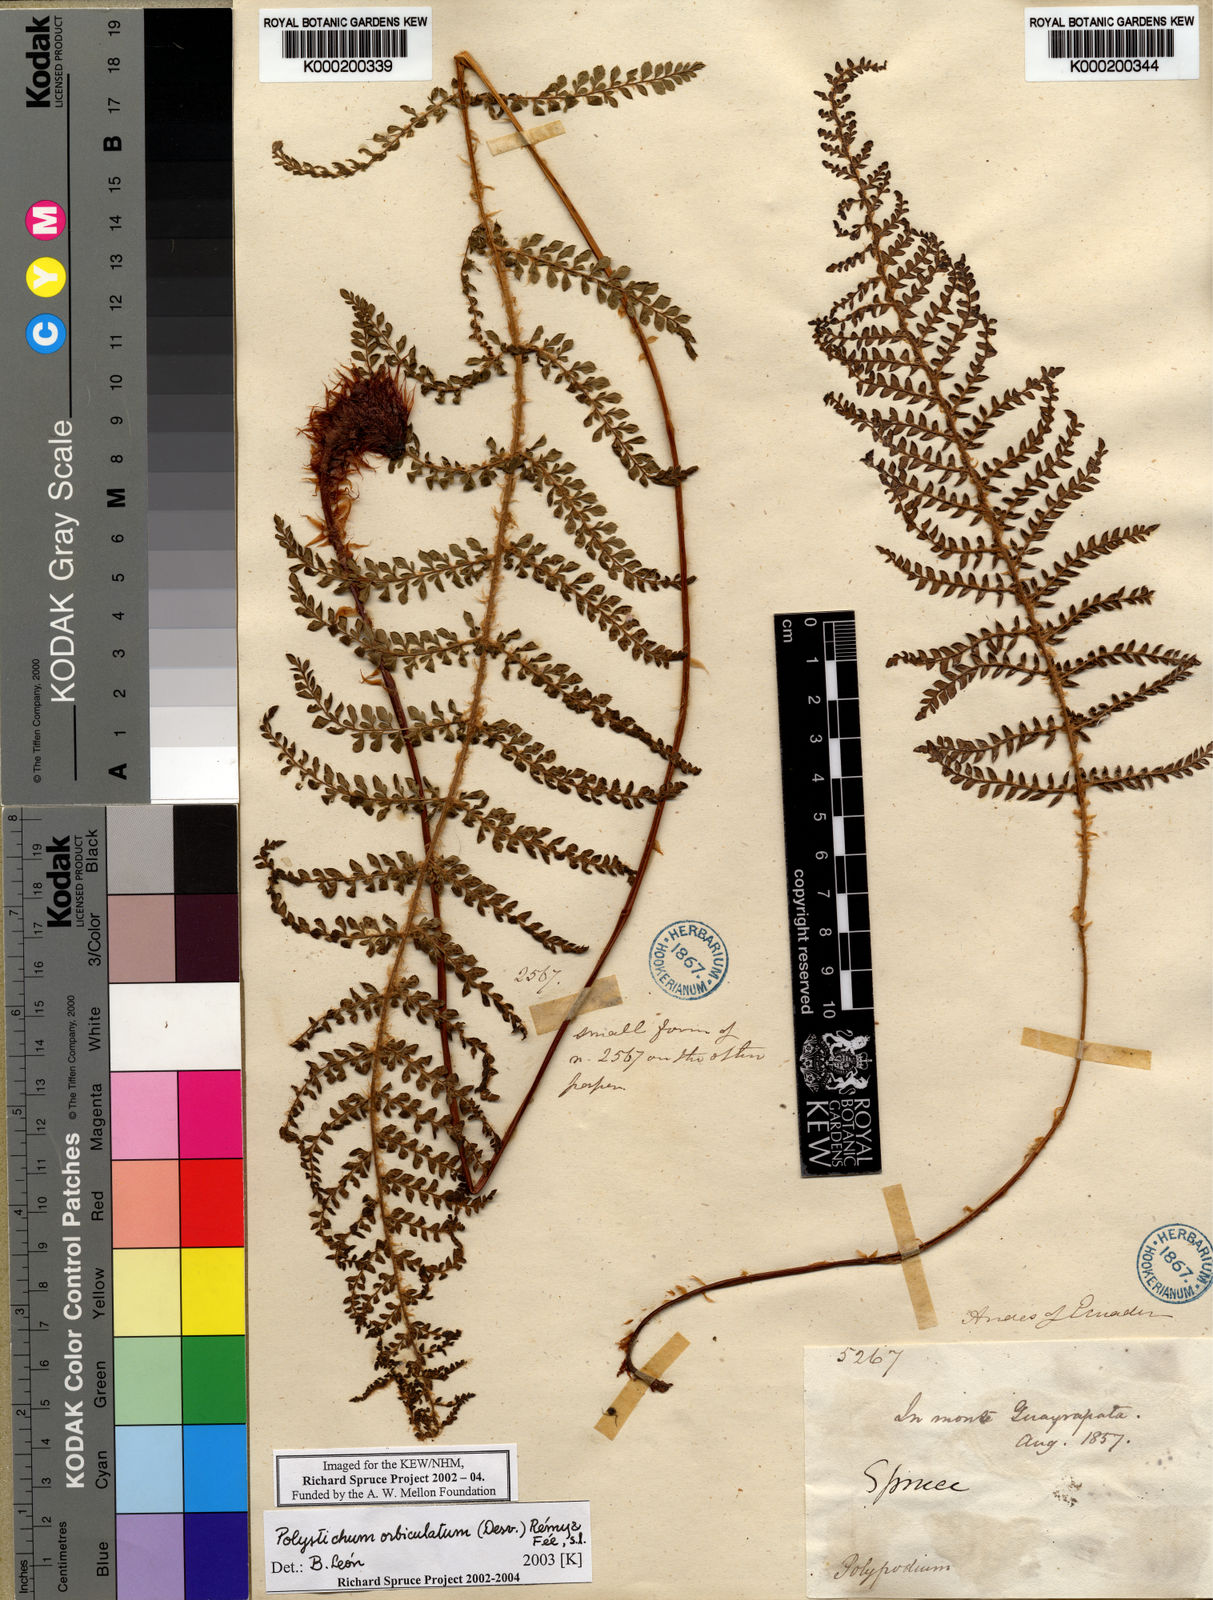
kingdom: Plantae
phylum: Tracheophyta
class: Polypodiopsida
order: Polypodiales
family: Dryopteridaceae
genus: Polystichum
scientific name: Polystichum
